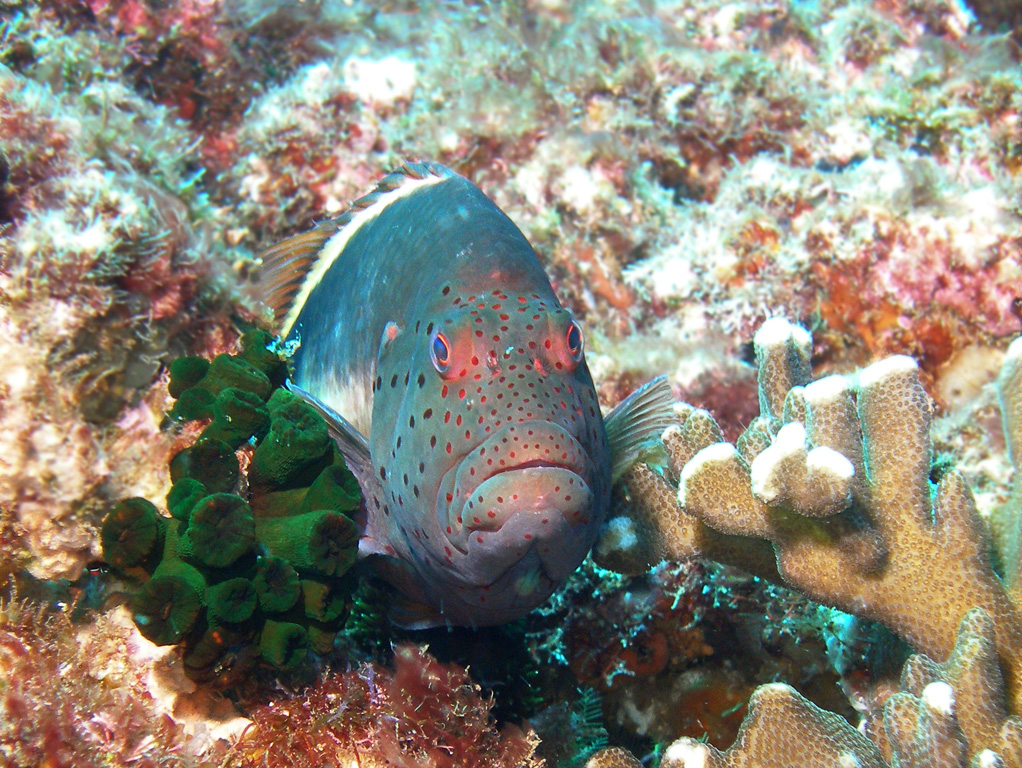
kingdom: Animalia
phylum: Chordata
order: Perciformes
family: Cirrhitidae
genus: Paracirrhites
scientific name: Paracirrhites forsteri
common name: Freckled hawkfish
